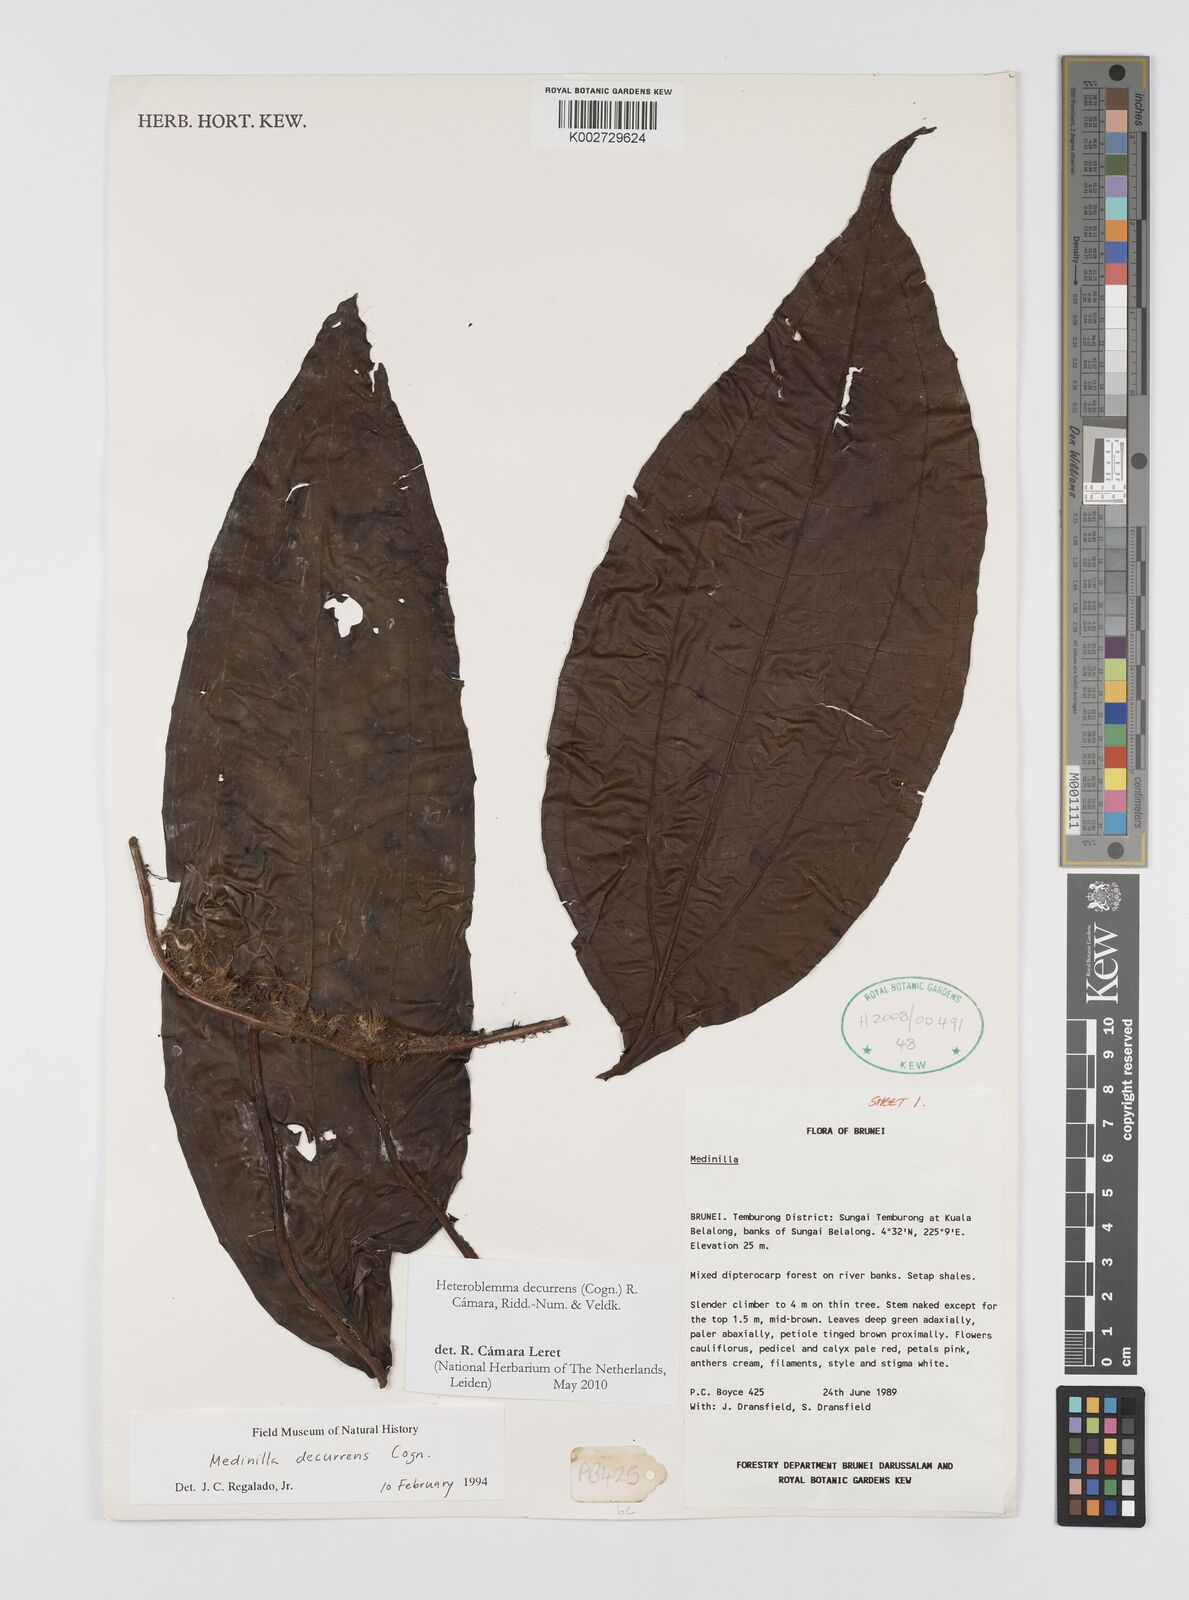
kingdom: Plantae
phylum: Tracheophyta
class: Magnoliopsida
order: Myrtales
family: Melastomataceae
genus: Heteroblemma
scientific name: Heteroblemma decurrens
